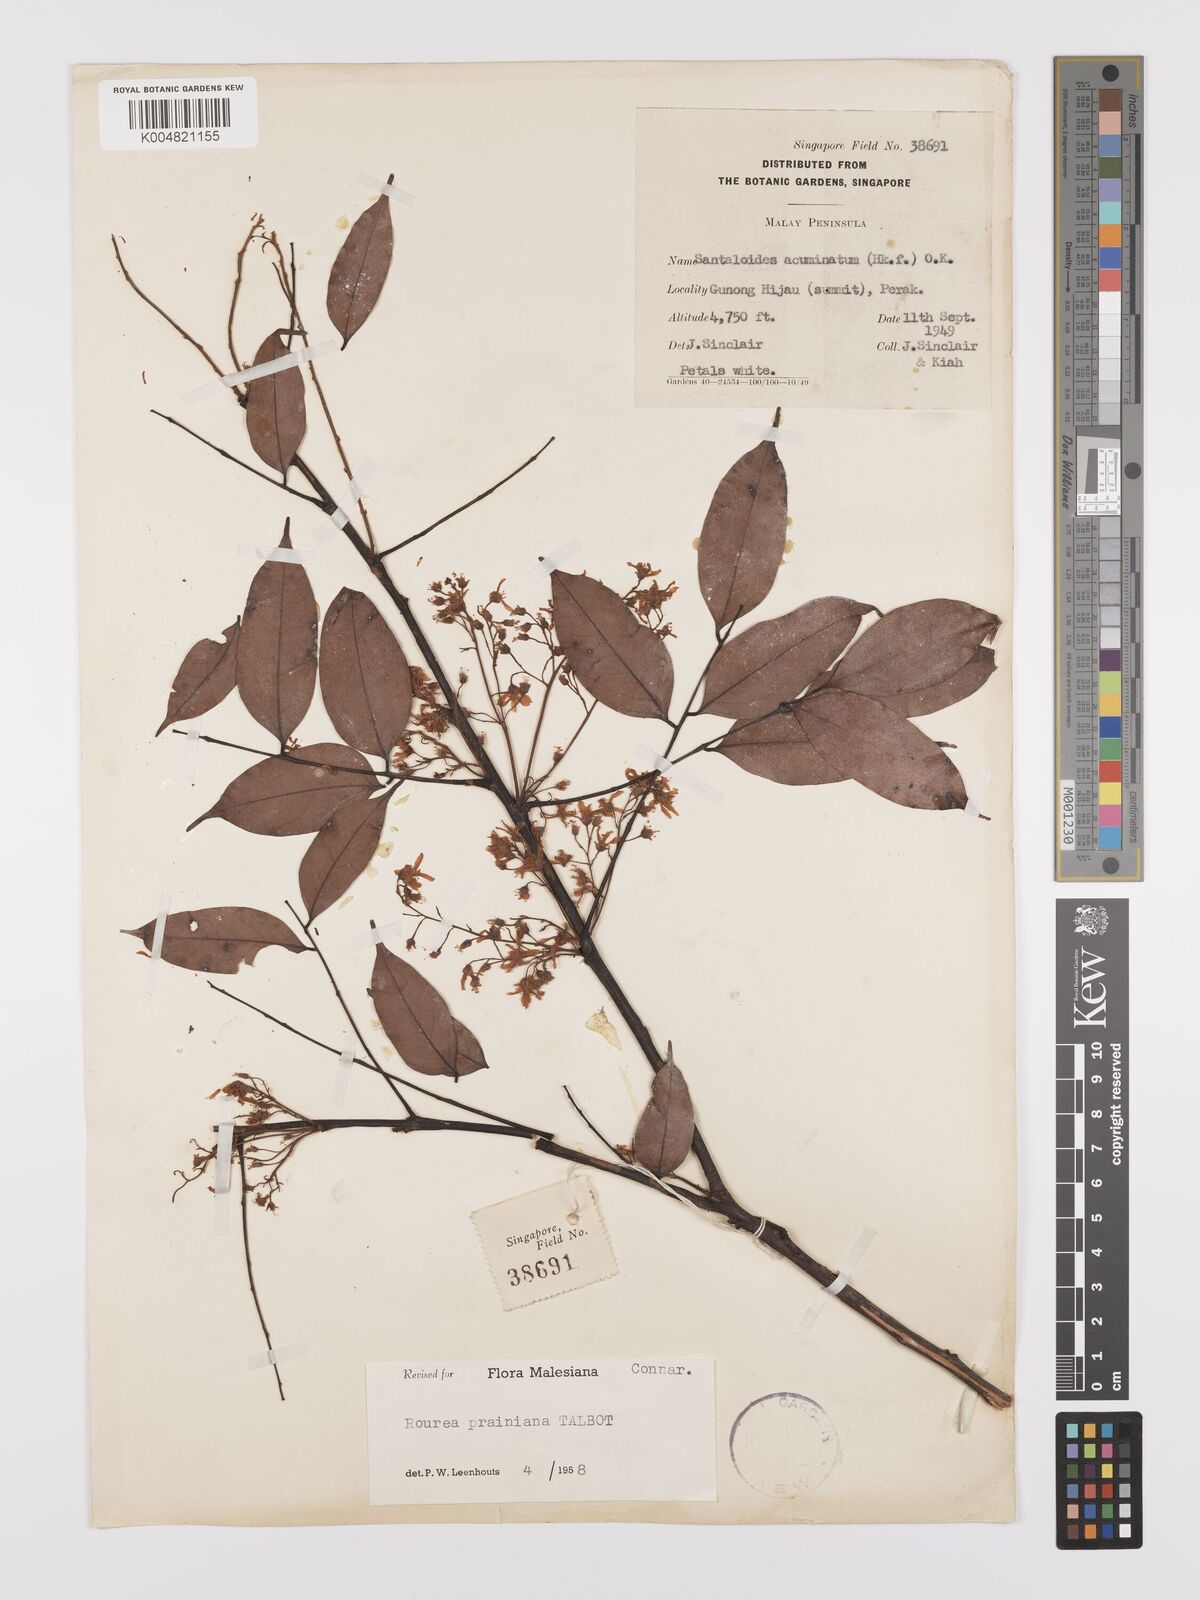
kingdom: Plantae
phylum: Tracheophyta
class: Magnoliopsida
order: Oxalidales
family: Connaraceae
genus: Rourea
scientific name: Rourea prainiana
